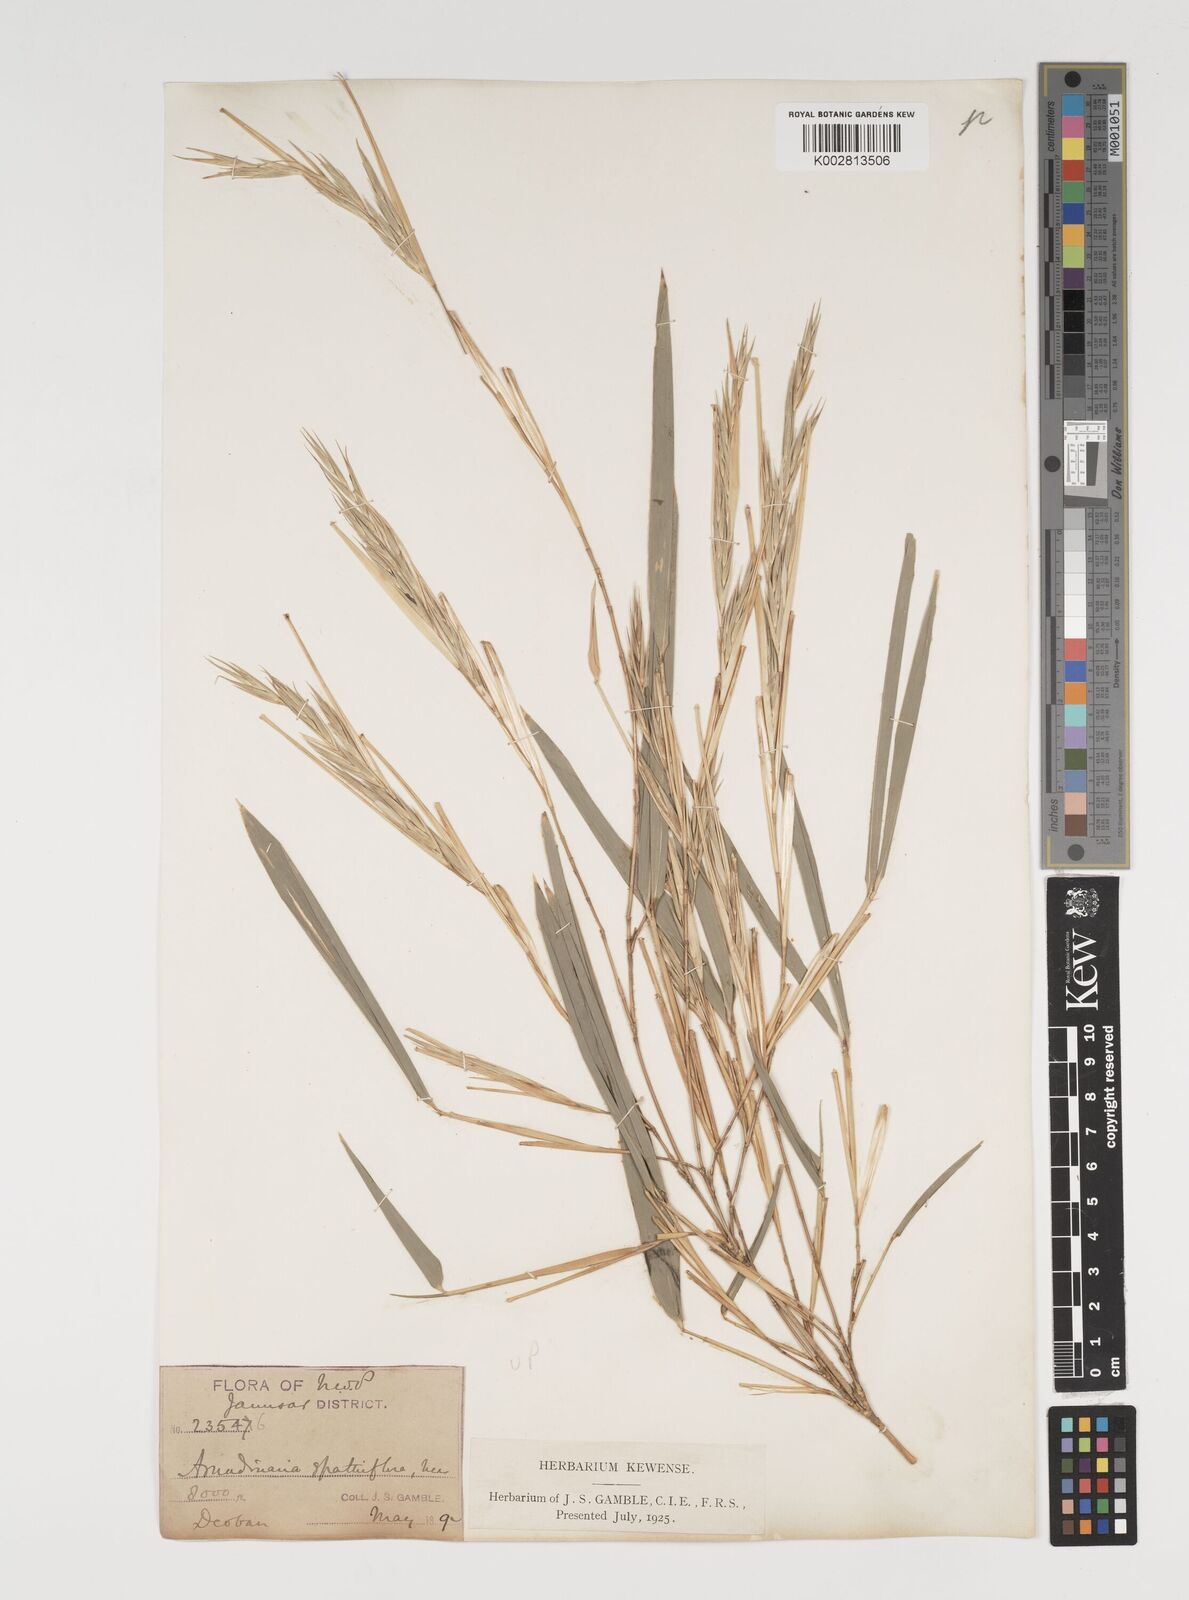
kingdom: Plantae
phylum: Tracheophyta
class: Liliopsida
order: Poales
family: Poaceae
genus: Thamnocalamus
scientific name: Thamnocalamus spathiflorus
